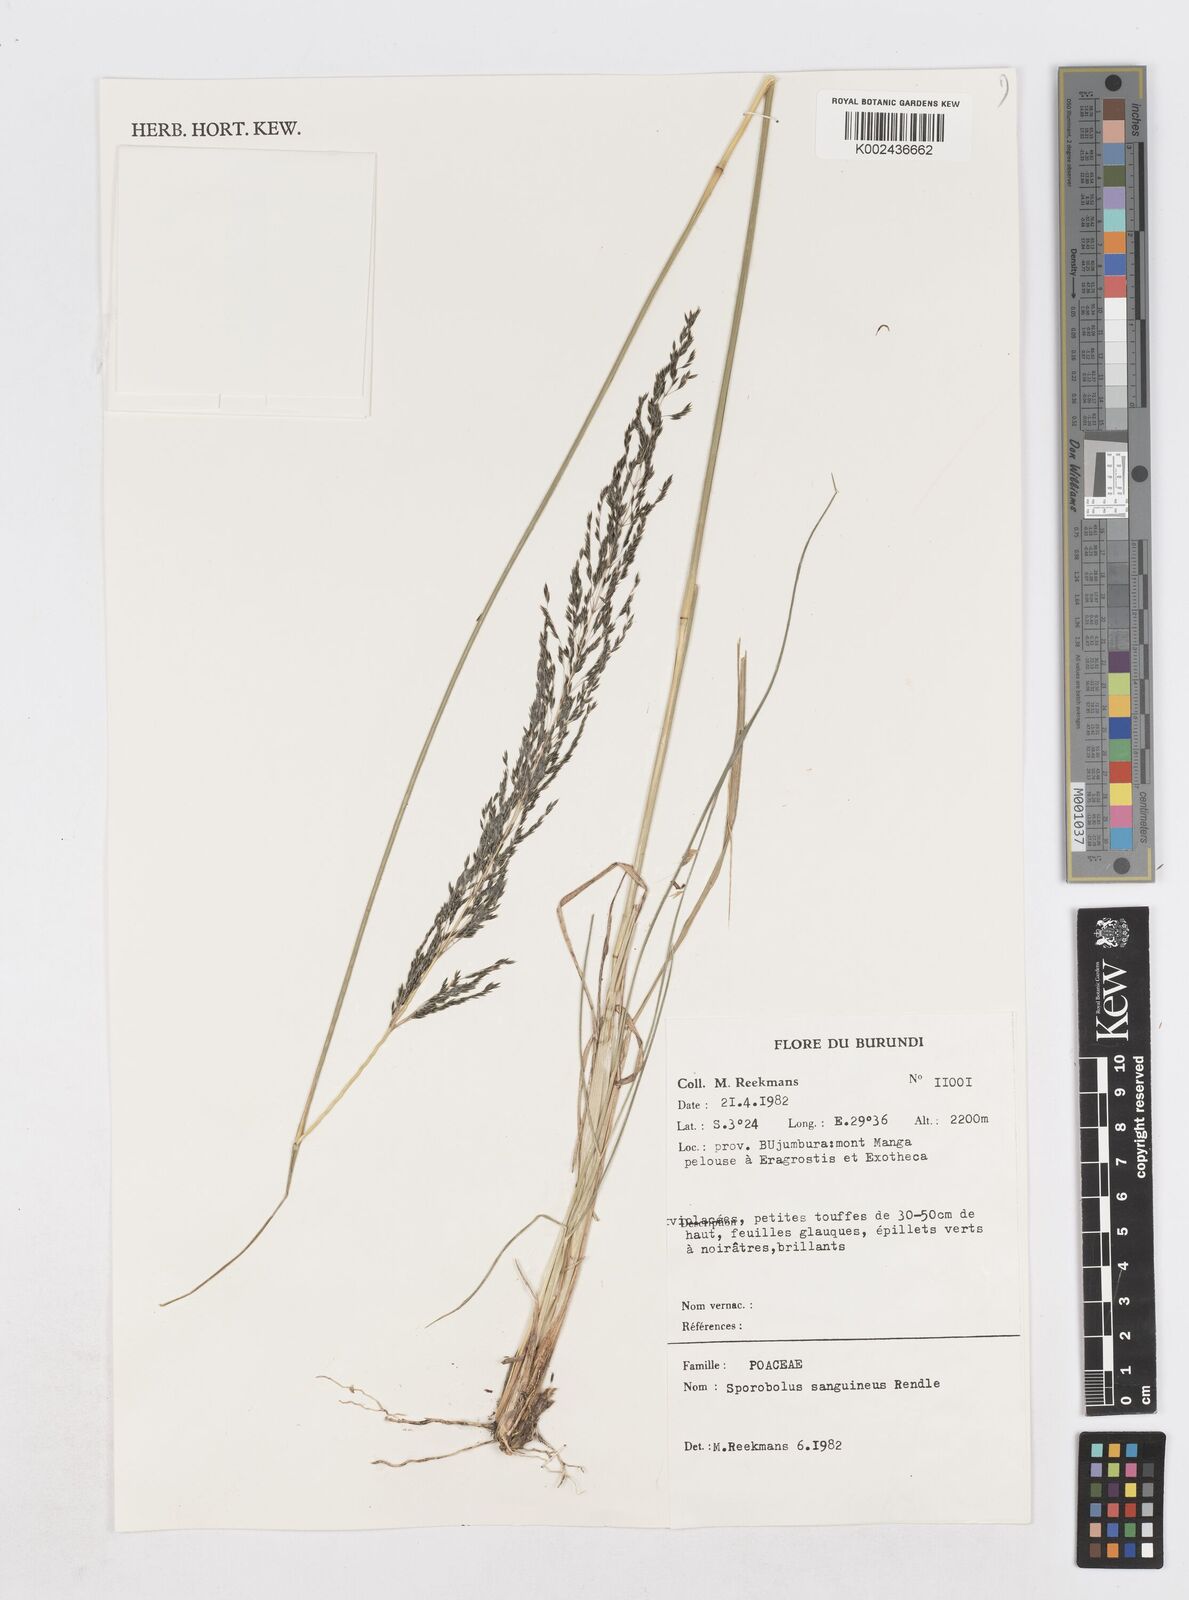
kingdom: Plantae
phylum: Tracheophyta
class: Liliopsida
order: Poales
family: Poaceae
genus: Sporobolus
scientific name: Sporobolus sanguineus
